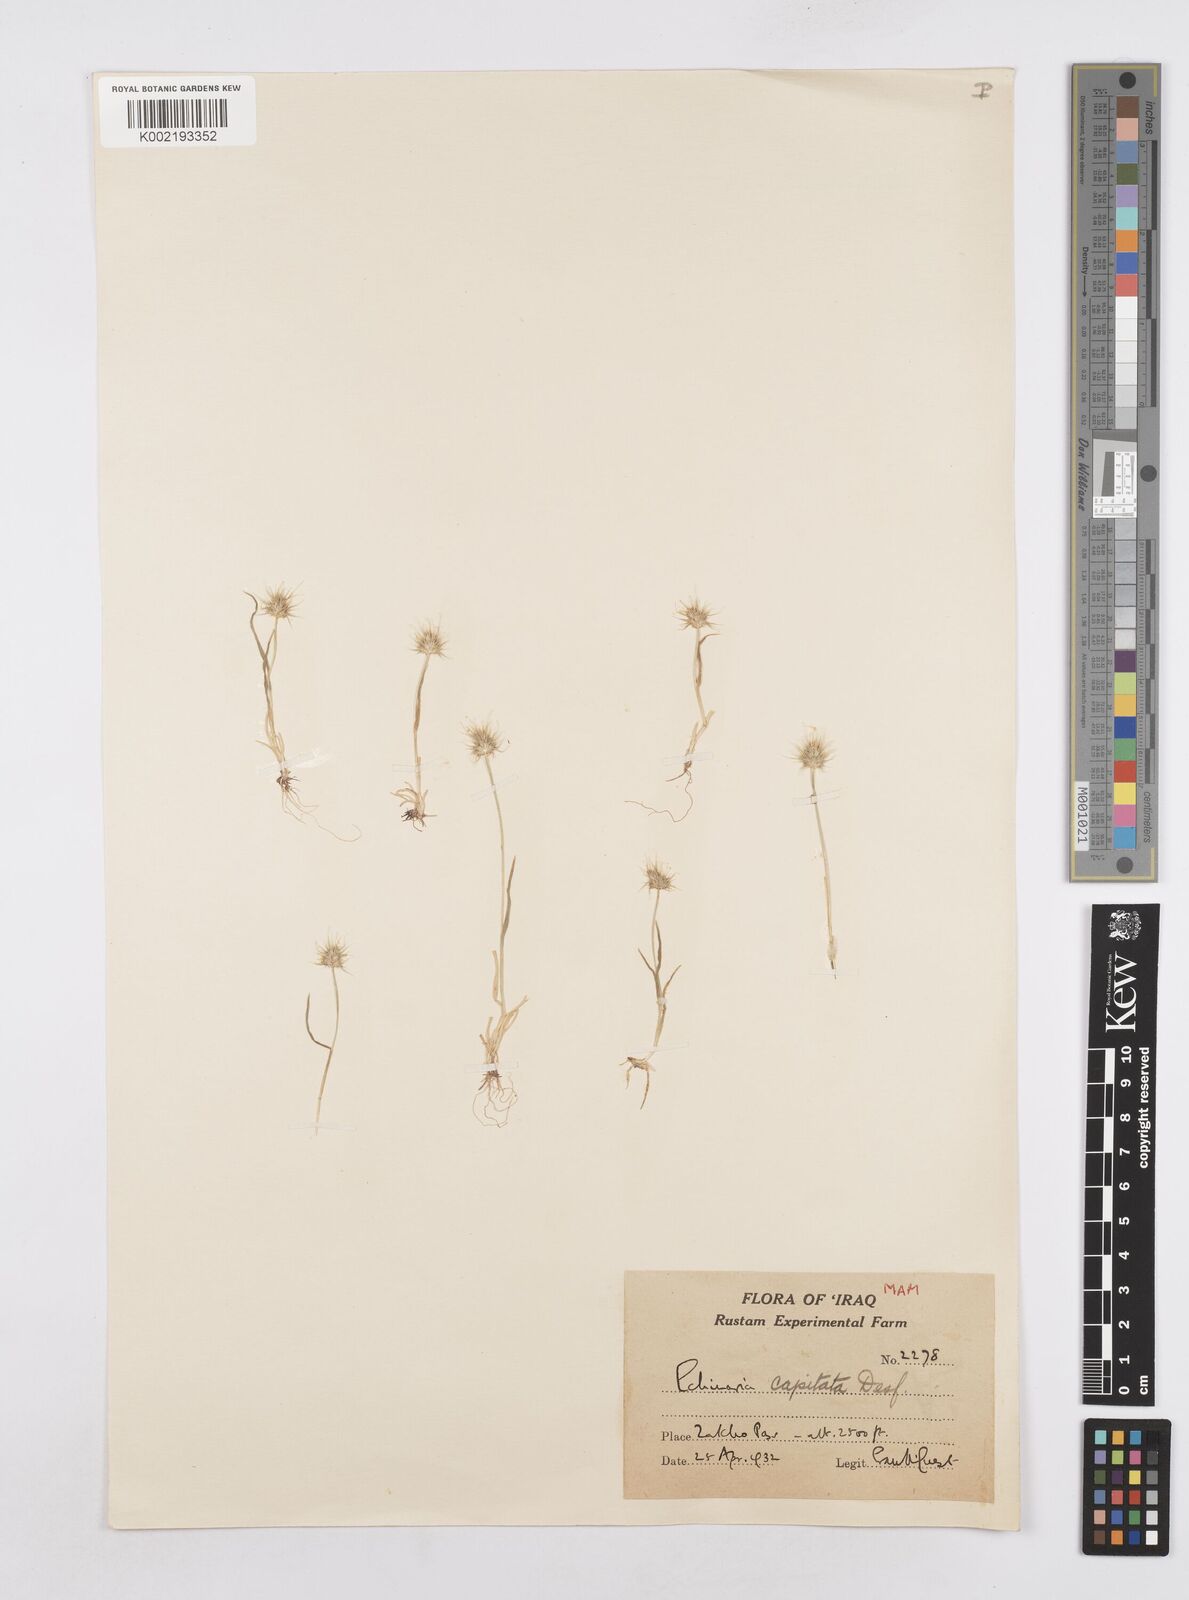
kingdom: Plantae
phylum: Tracheophyta
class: Liliopsida
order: Poales
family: Poaceae
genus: Echinaria
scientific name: Echinaria capitata
